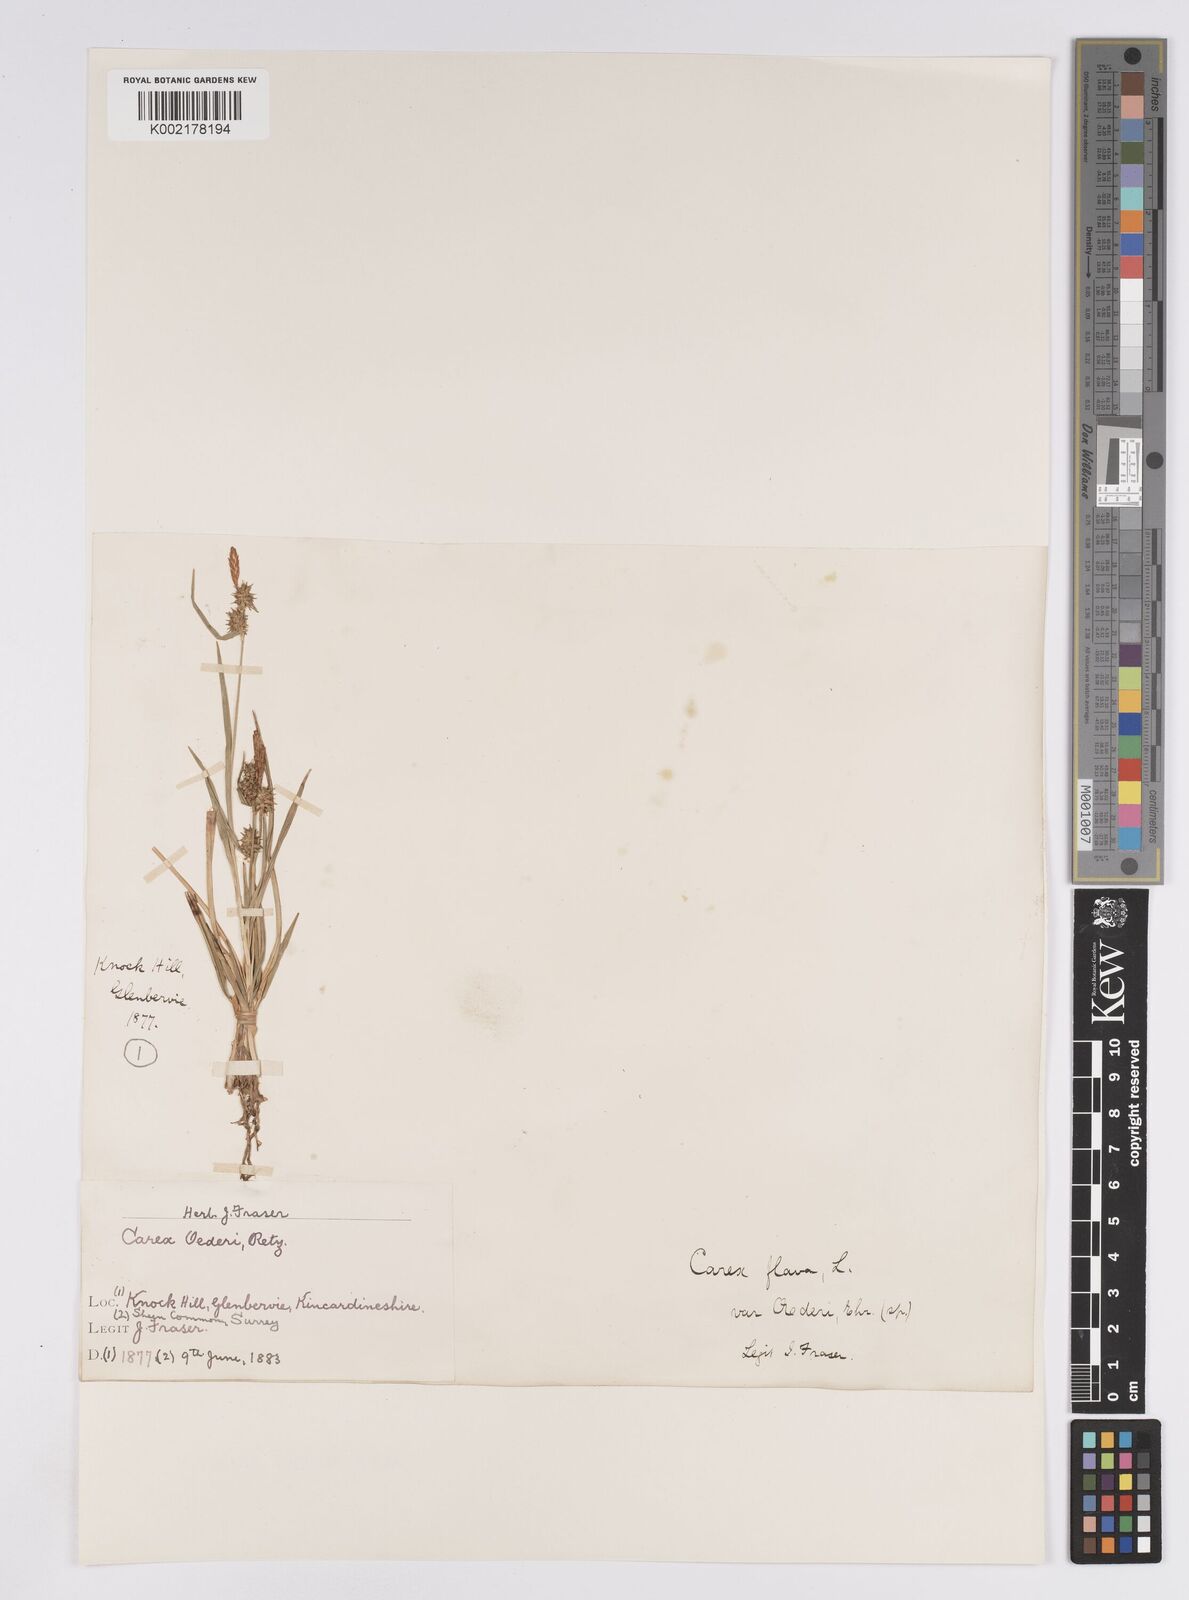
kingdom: Plantae
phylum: Tracheophyta
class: Liliopsida
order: Poales
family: Cyperaceae
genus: Carex
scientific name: Carex demissa
